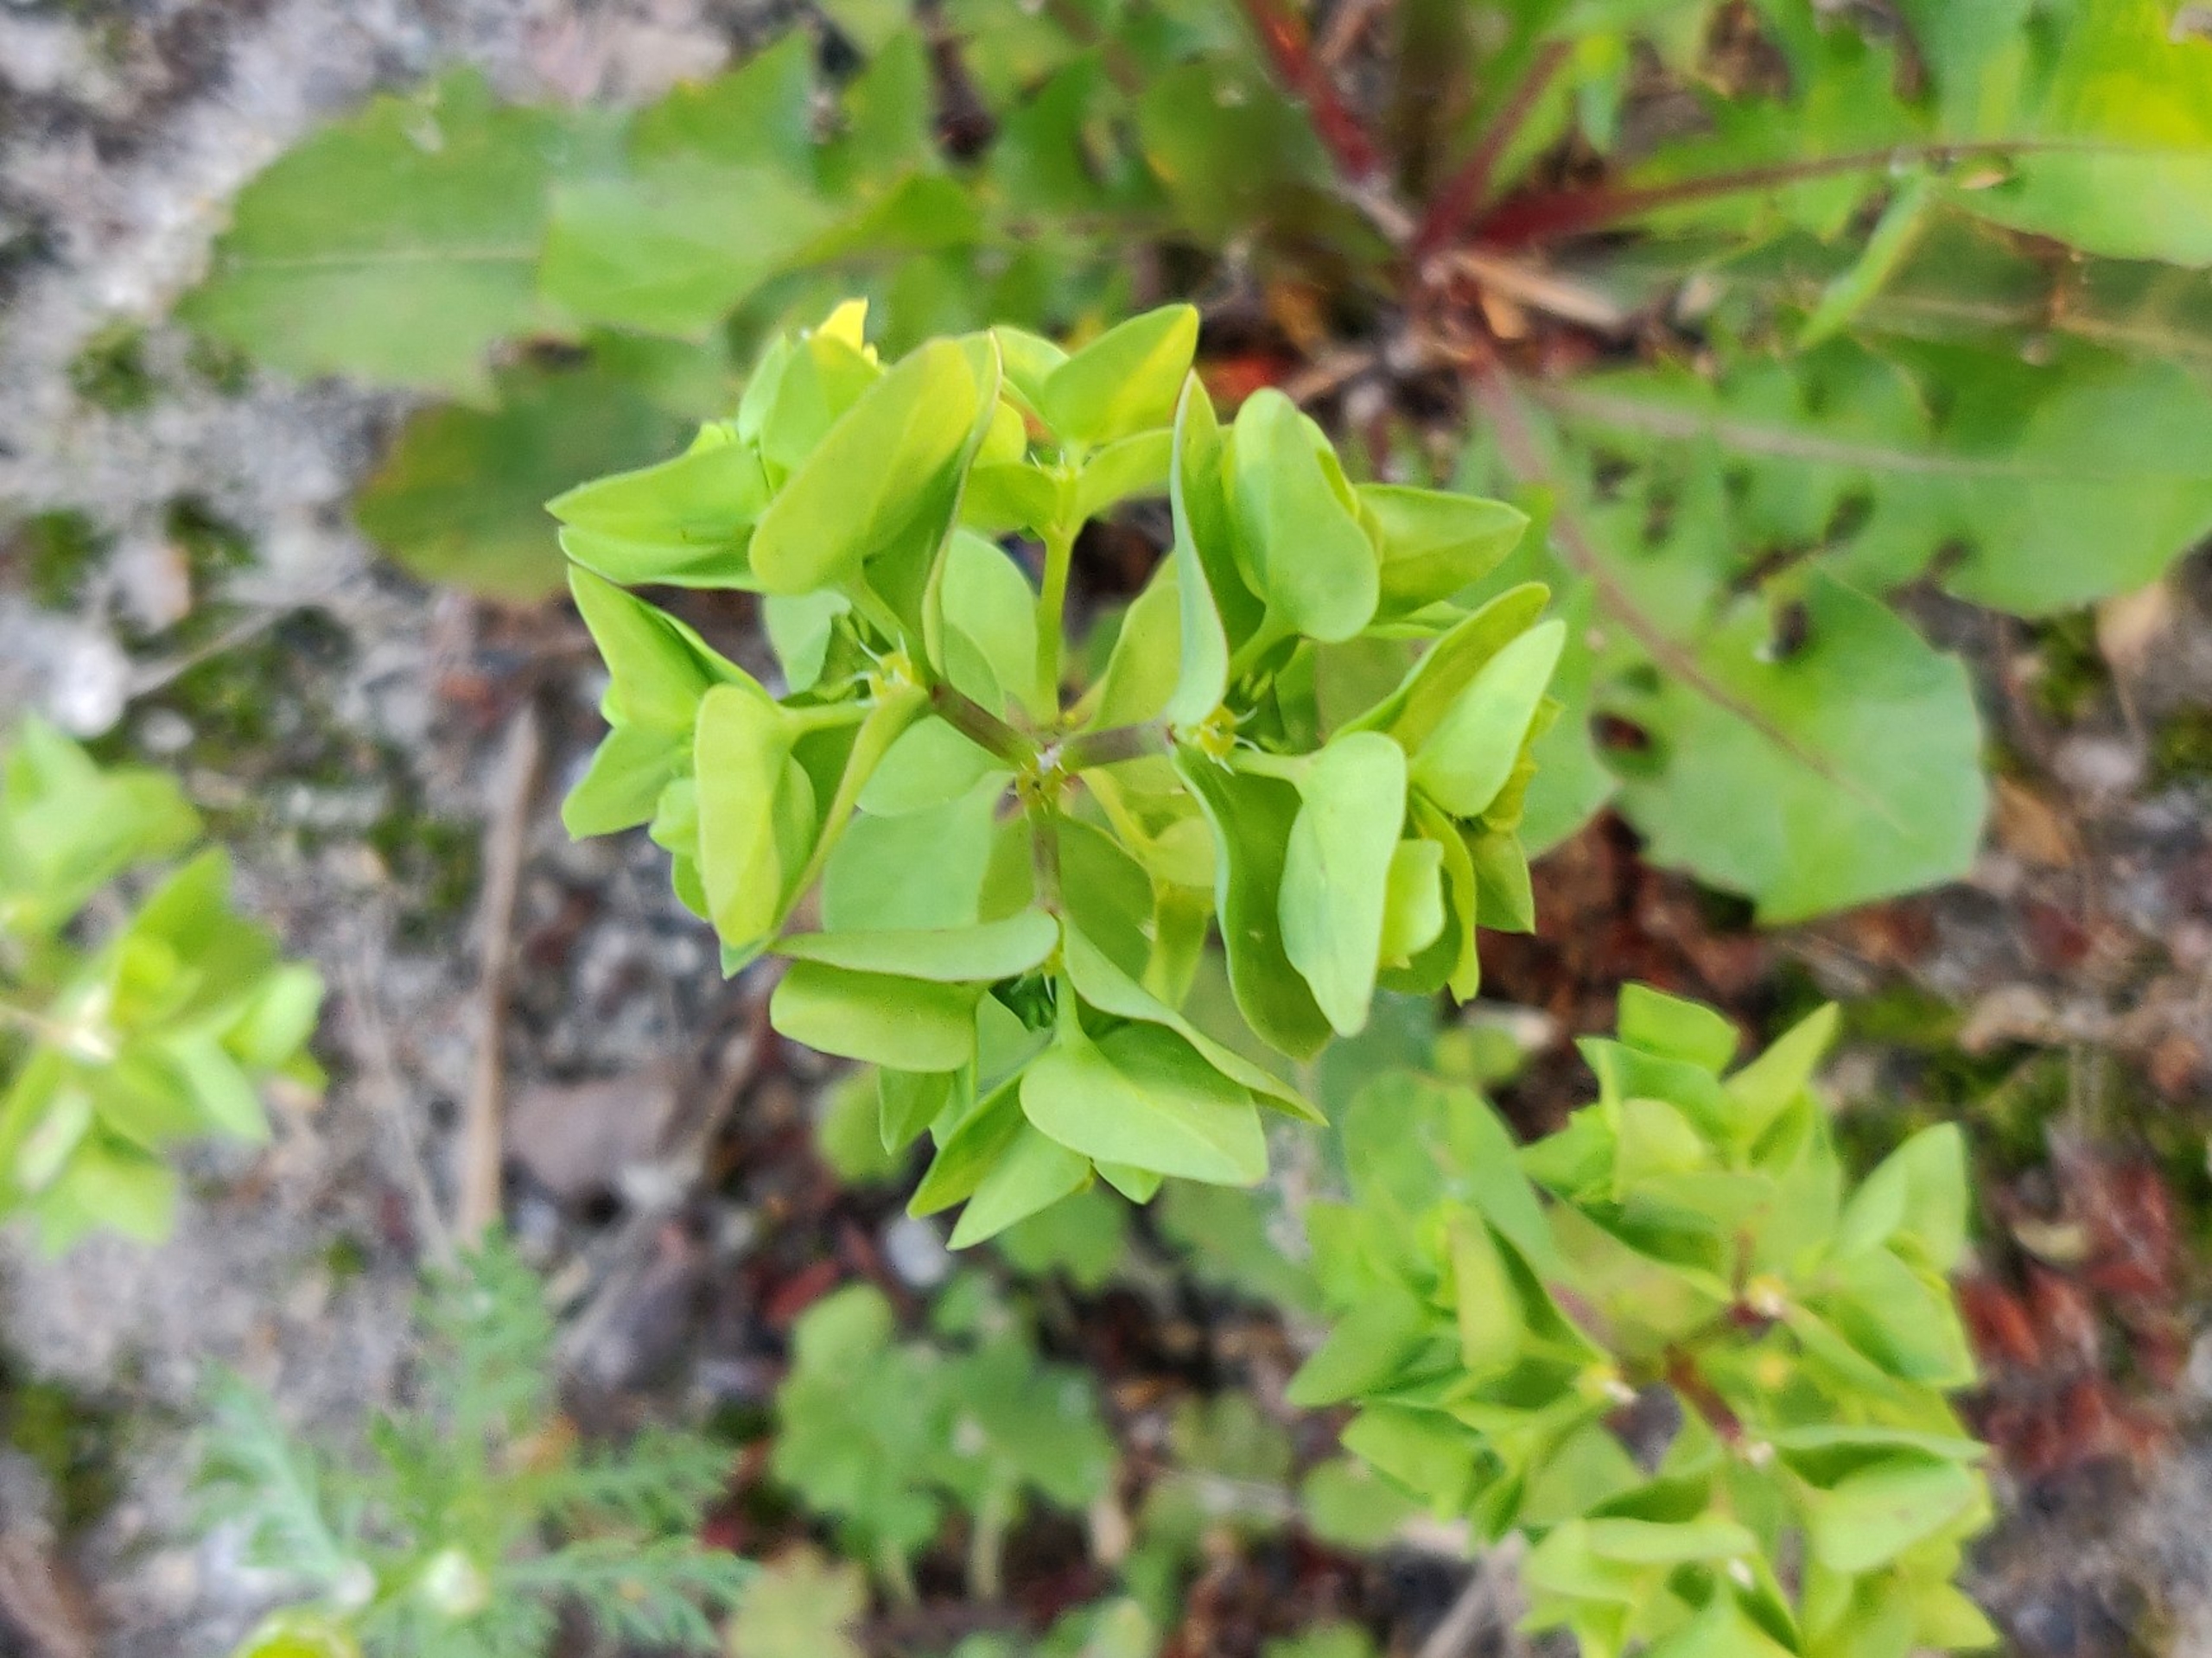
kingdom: Plantae
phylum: Tracheophyta
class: Magnoliopsida
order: Malpighiales
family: Euphorbiaceae
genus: Euphorbia
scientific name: Euphorbia peplus
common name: Gaffel-vortemælk
